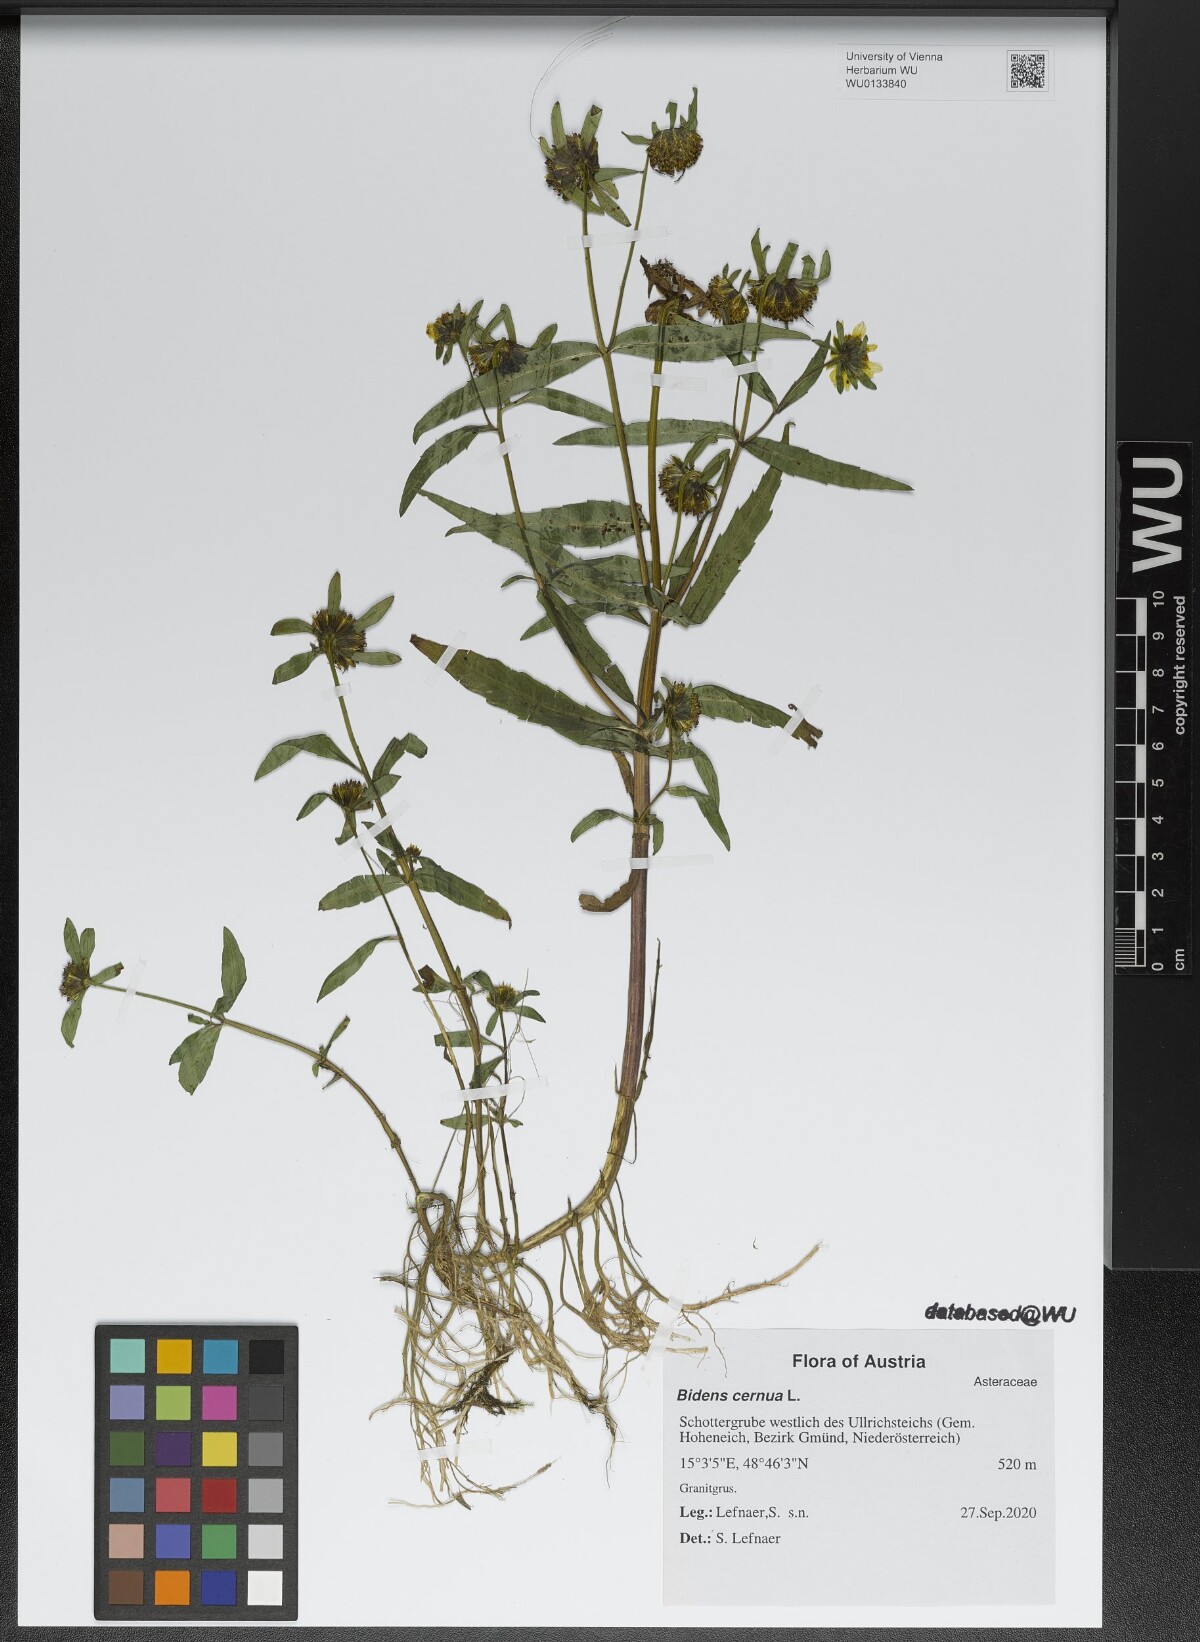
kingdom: Plantae
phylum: Tracheophyta
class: Magnoliopsida
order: Asterales
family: Asteraceae
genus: Bidens
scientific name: Bidens cernua
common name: Nodding bur-marigold
